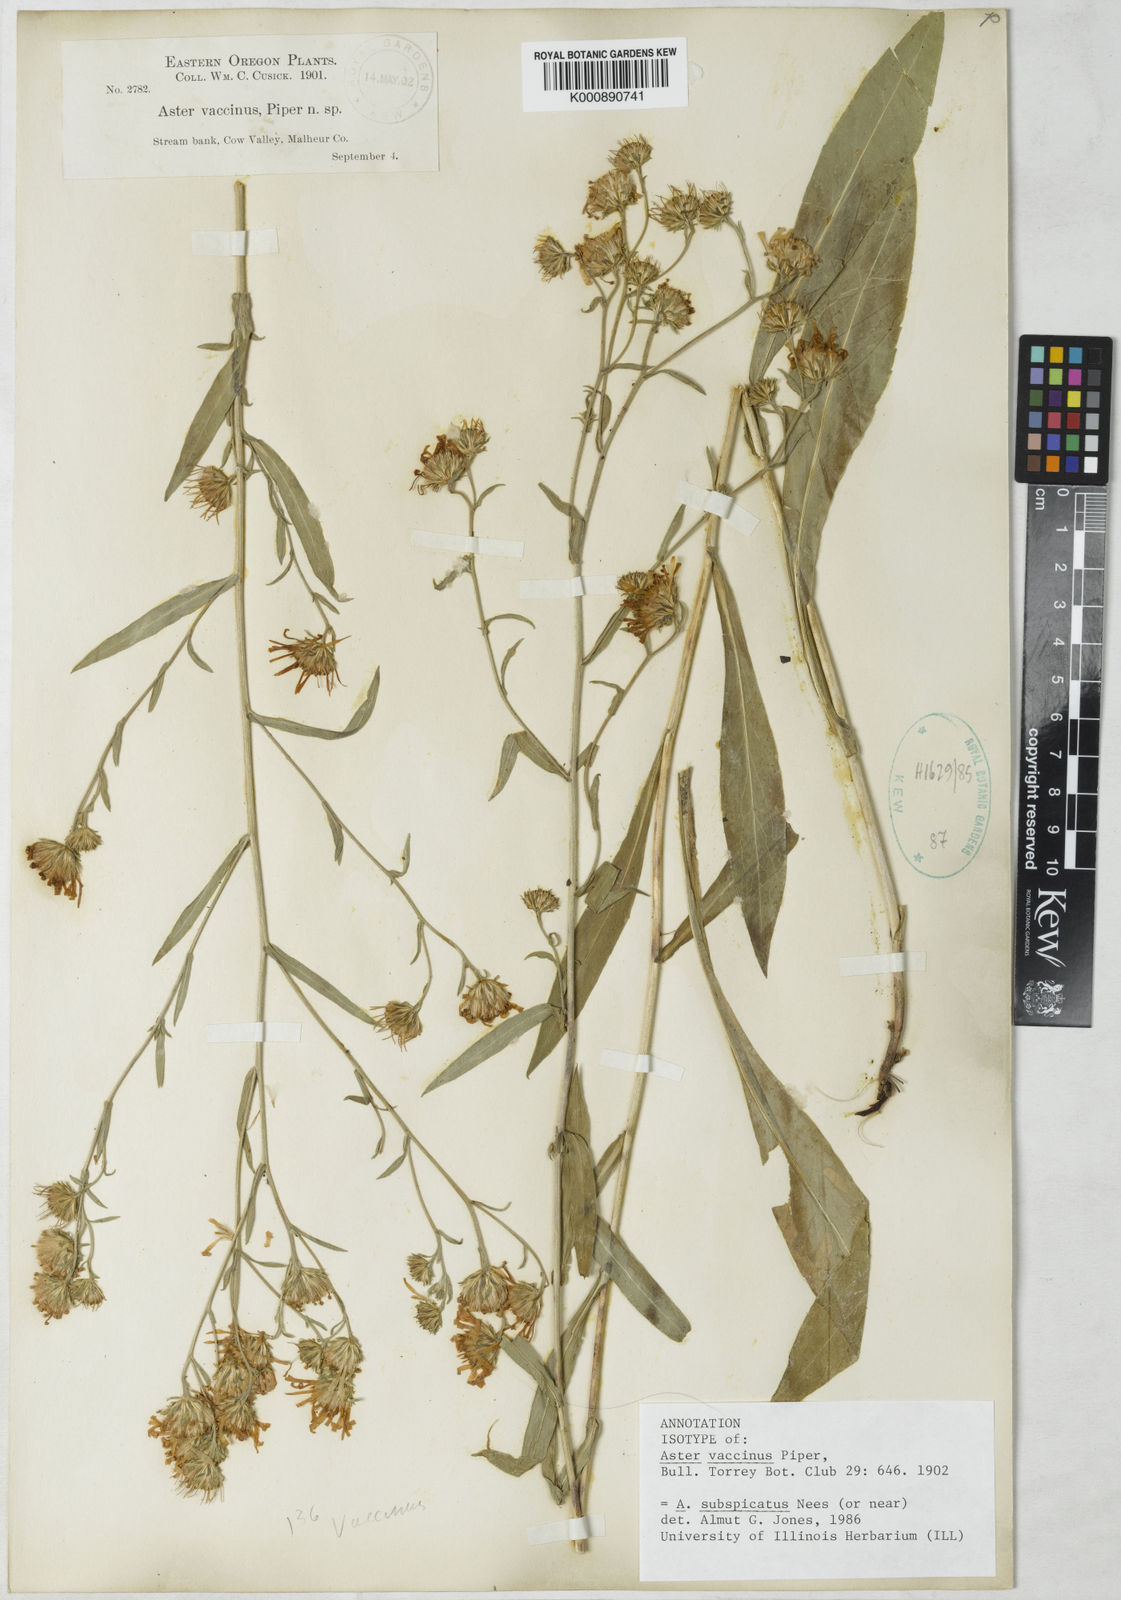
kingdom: Plantae
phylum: Tracheophyta
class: Magnoliopsida
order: Asterales
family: Asteraceae
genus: Symphyotrichum
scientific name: Symphyotrichum subspicatum
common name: Douglas' aster
